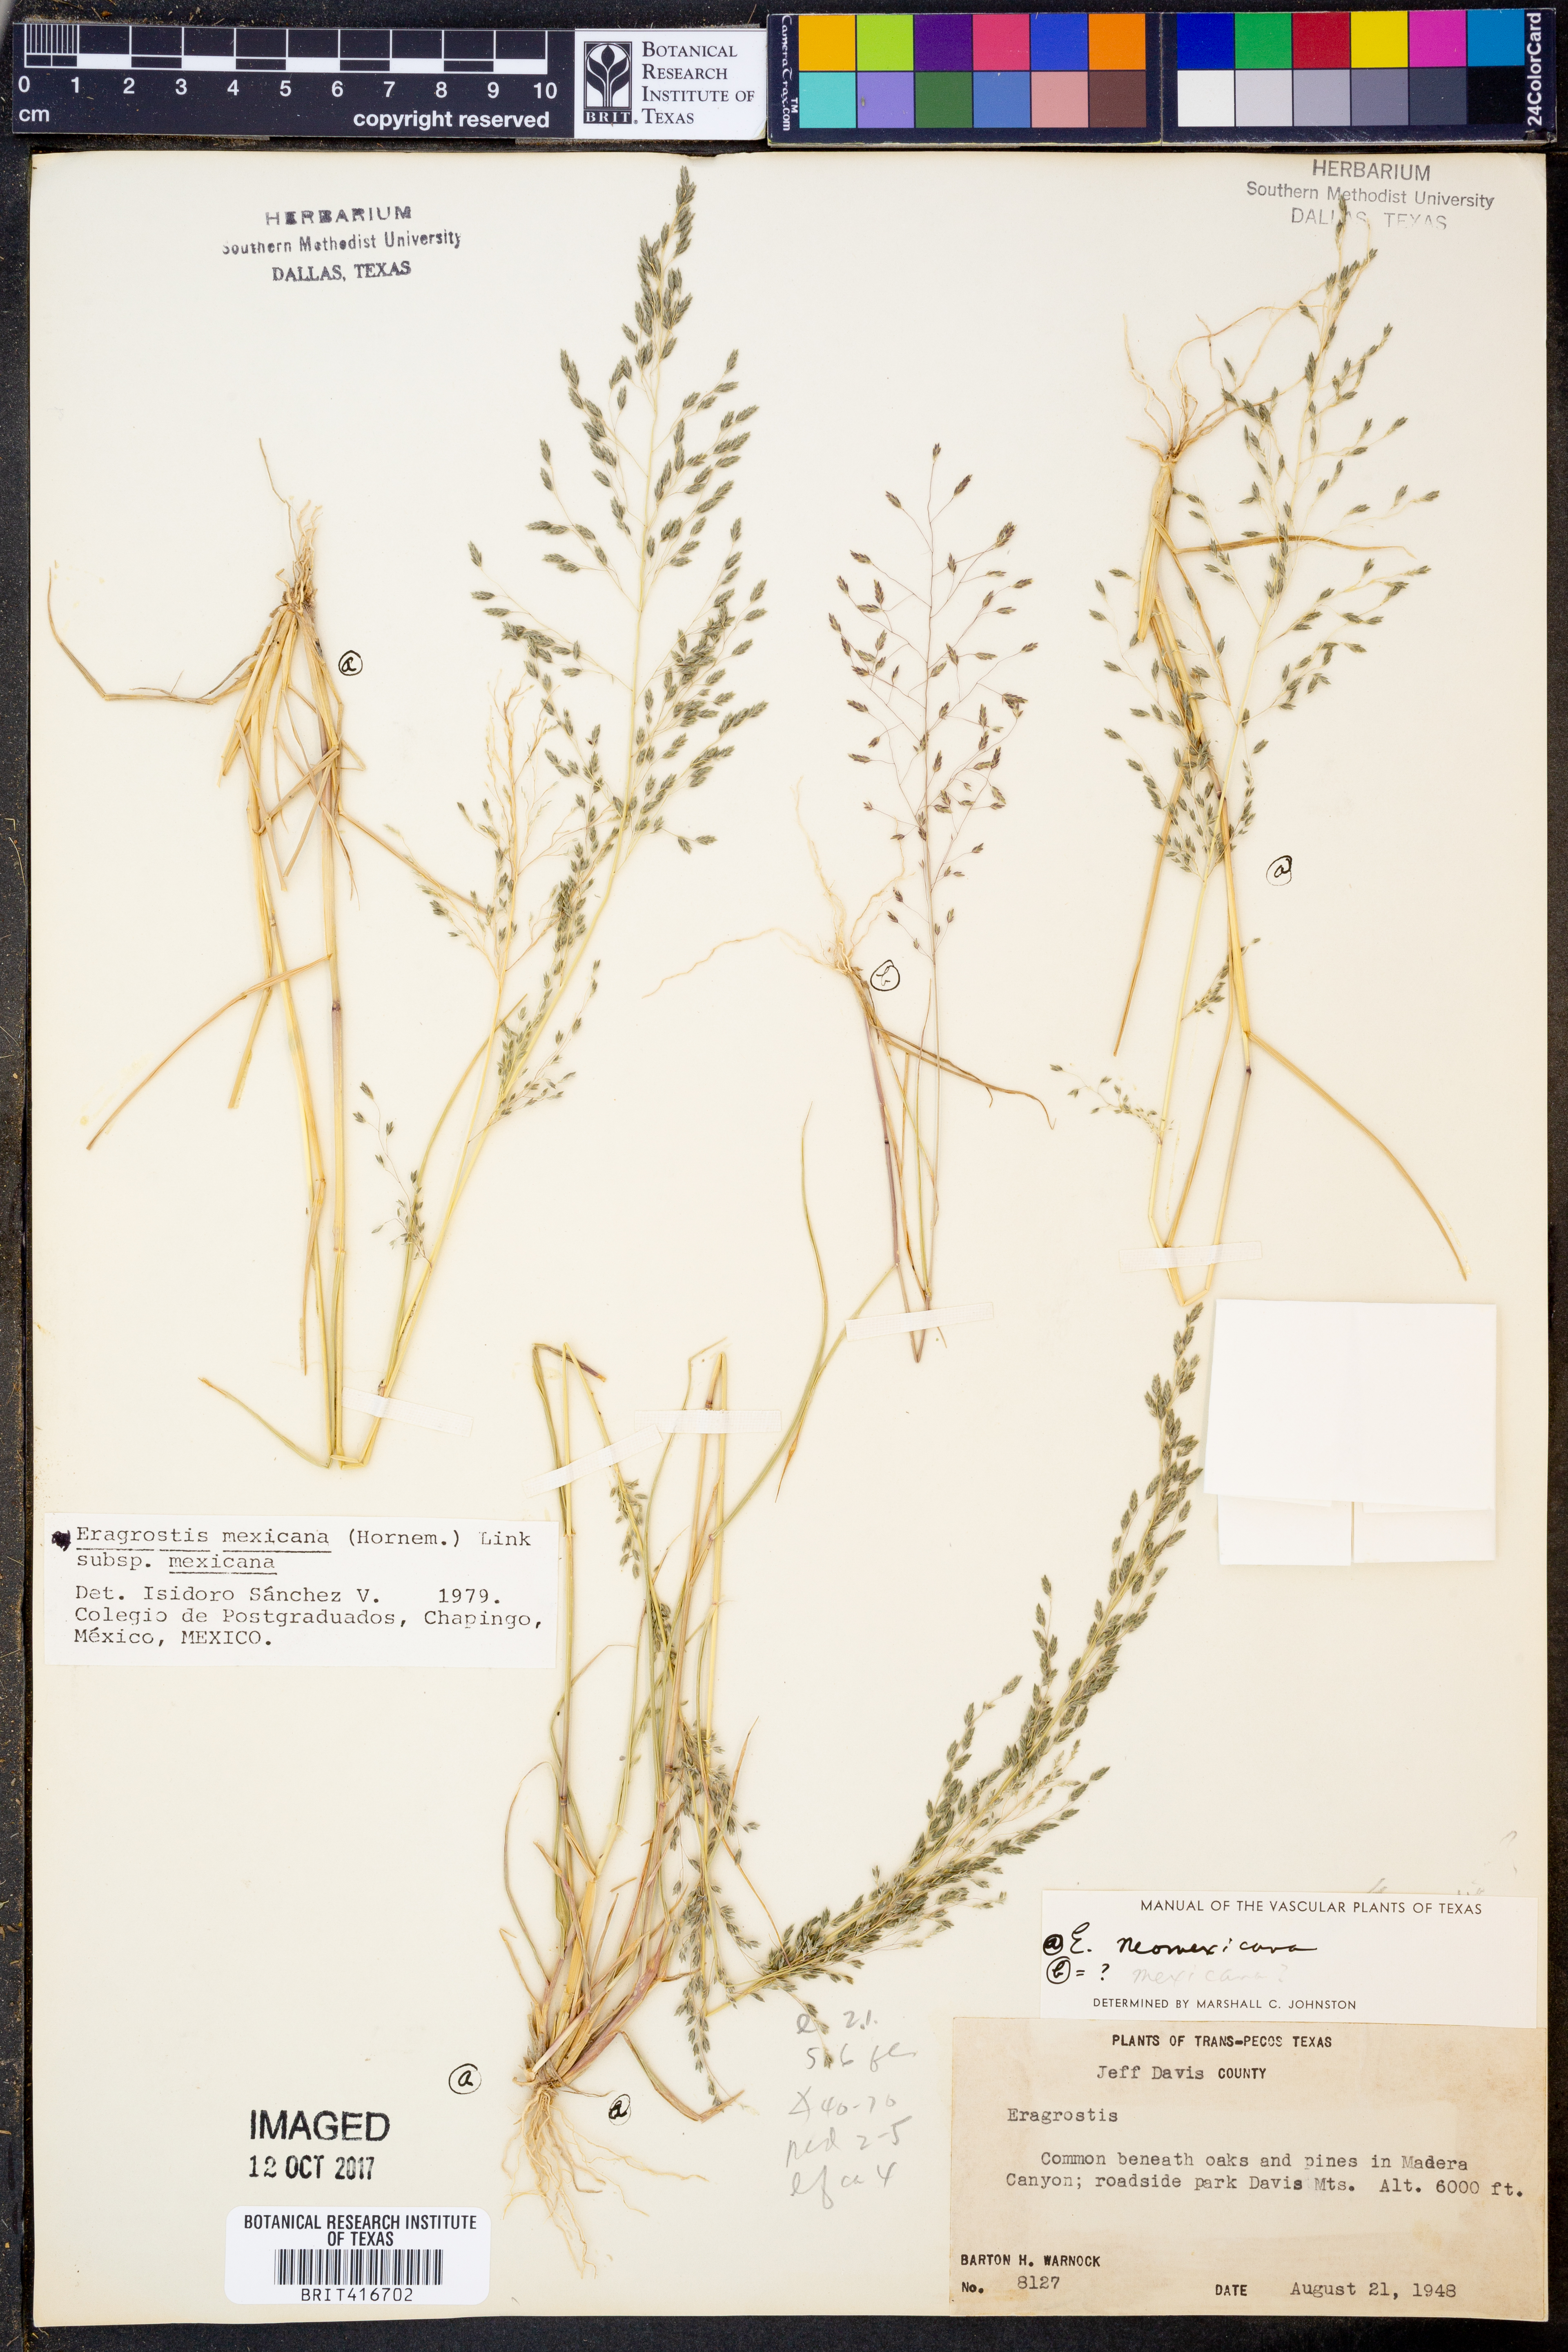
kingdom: Plantae
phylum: Tracheophyta
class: Liliopsida
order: Poales
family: Poaceae
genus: Eragrostis
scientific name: Eragrostis mexicana
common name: Mexican love grass
